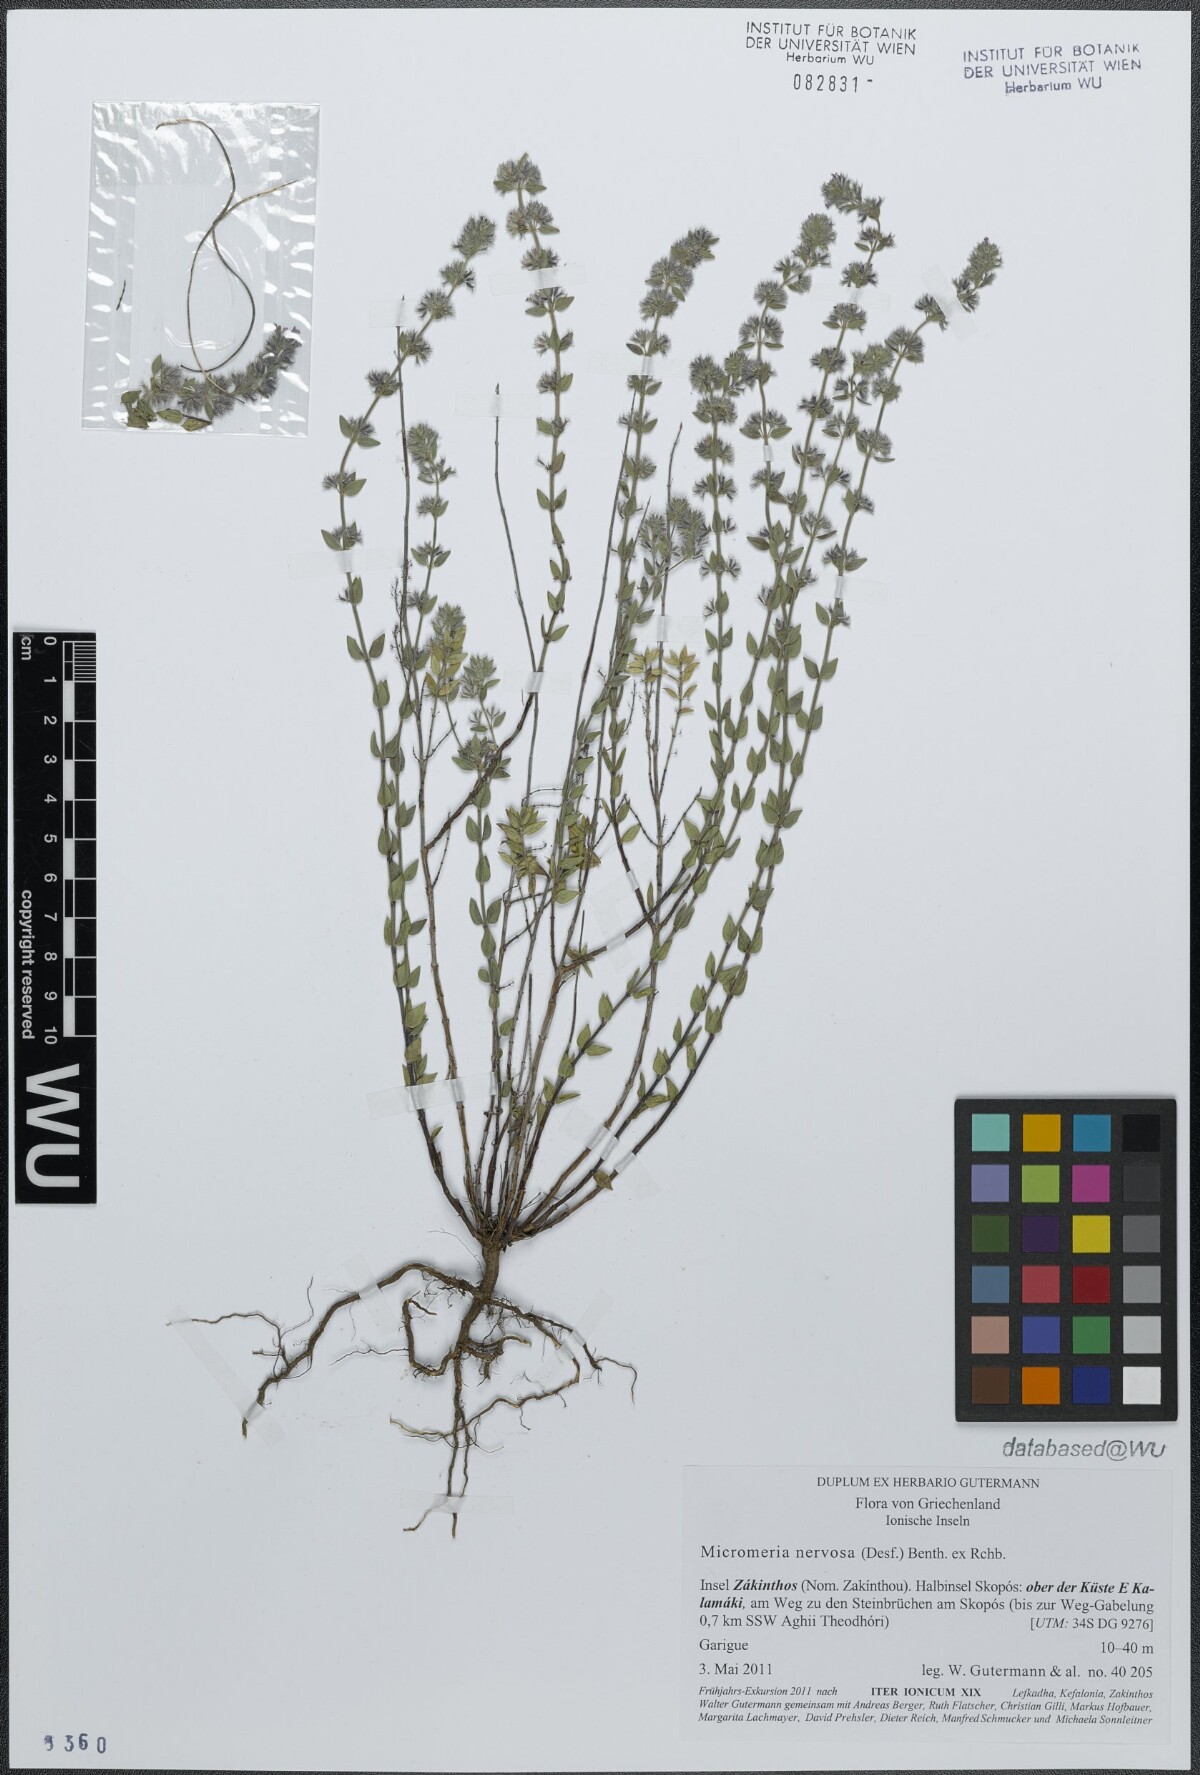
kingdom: Plantae
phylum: Tracheophyta
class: Magnoliopsida
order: Lamiales
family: Lamiaceae
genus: Micromeria
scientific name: Micromeria nervosa
